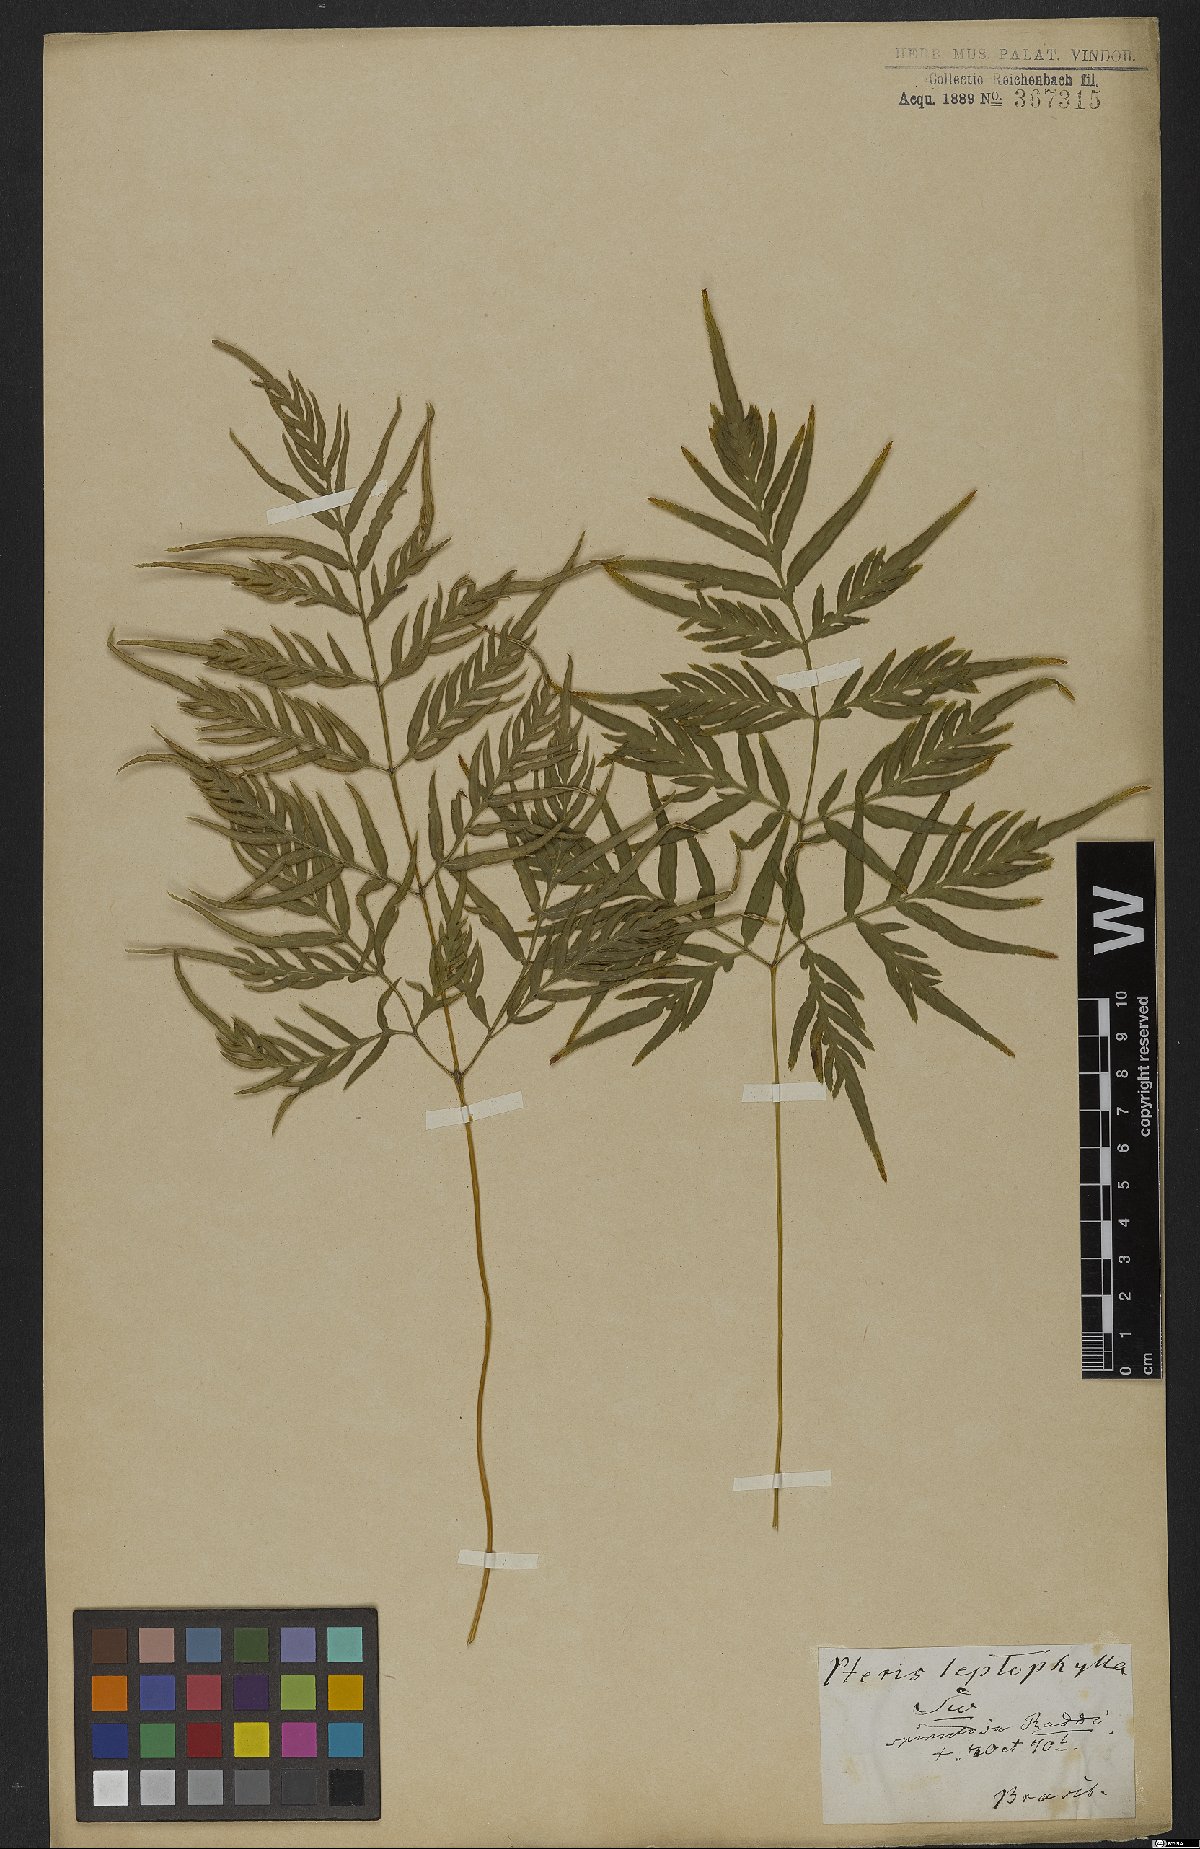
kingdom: Plantae
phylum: Tracheophyta
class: Polypodiopsida
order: Polypodiales
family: Pteridaceae
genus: Pteris
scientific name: Pteris leptophylla
